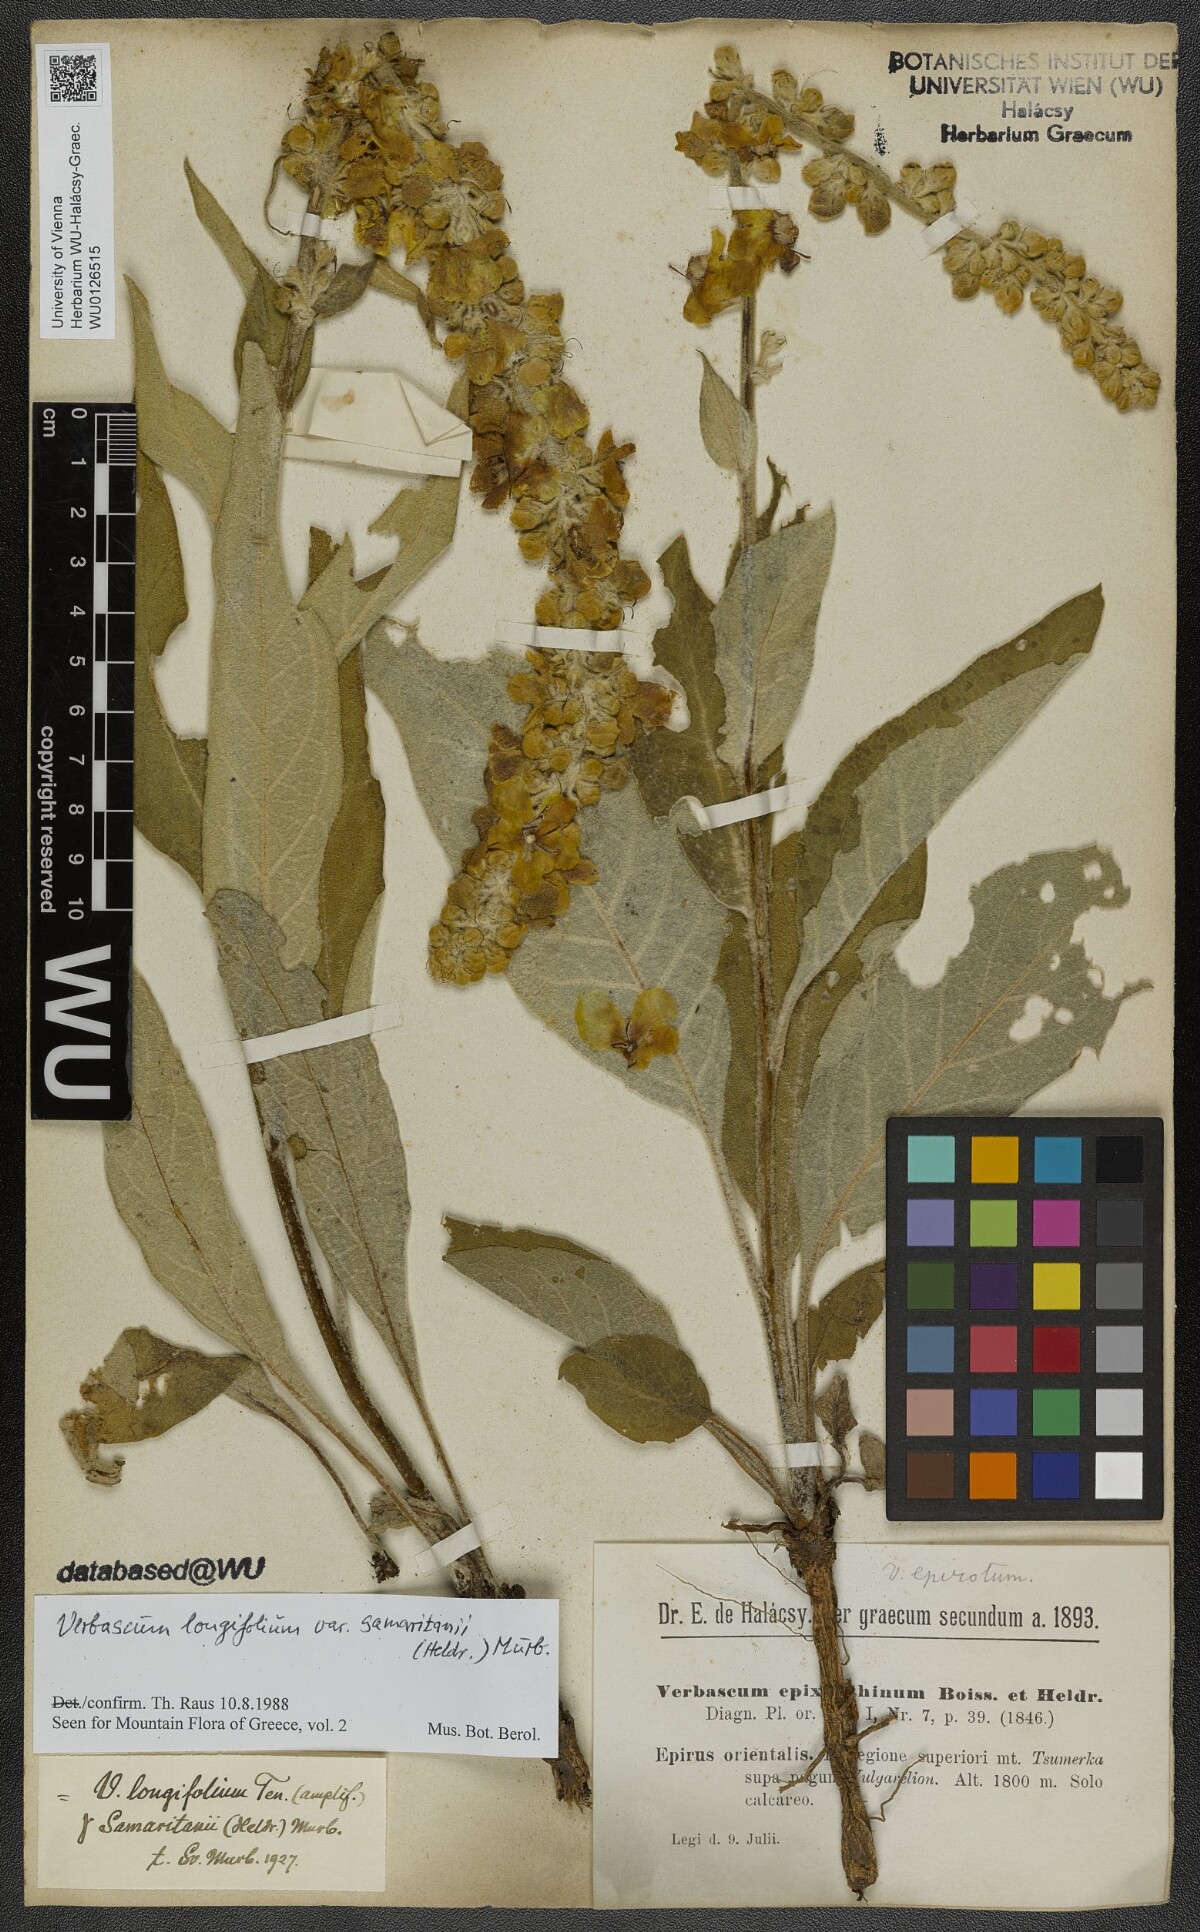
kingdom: Plantae
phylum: Tracheophyta
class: Magnoliopsida
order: Lamiales
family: Scrophulariaceae
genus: Verbascum
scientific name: Verbascum longifolium
